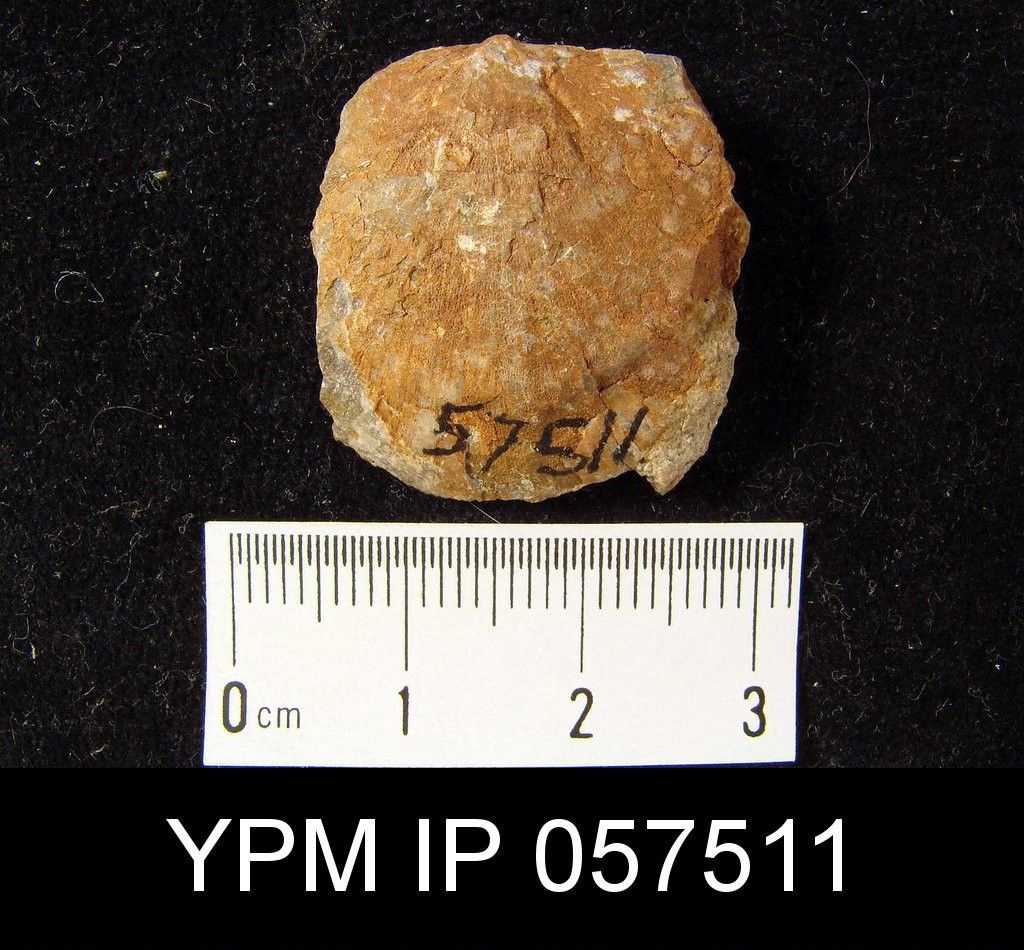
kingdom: Animalia
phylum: Brachiopoda
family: Stropheodontidae
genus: Strophodonta
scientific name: Strophodonta
